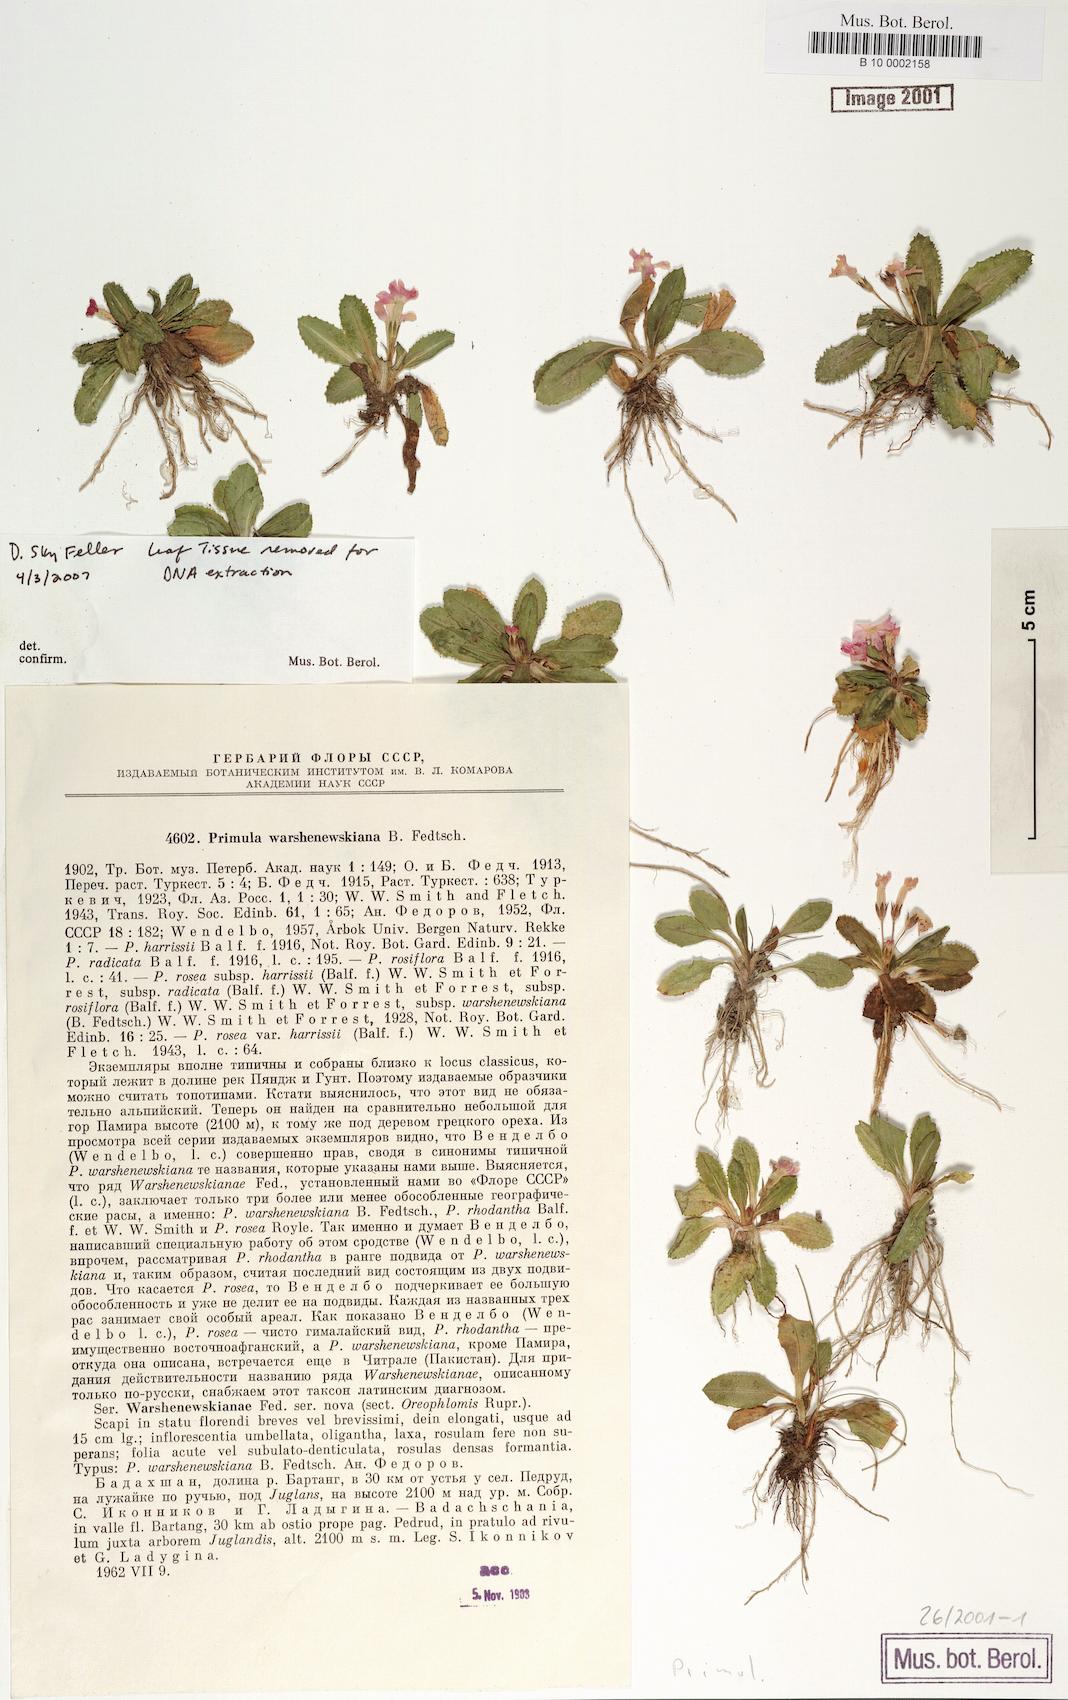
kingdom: Plantae
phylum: Tracheophyta
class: Magnoliopsida
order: Ericales
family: Primulaceae
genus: Primula
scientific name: Primula warshenewskiana
